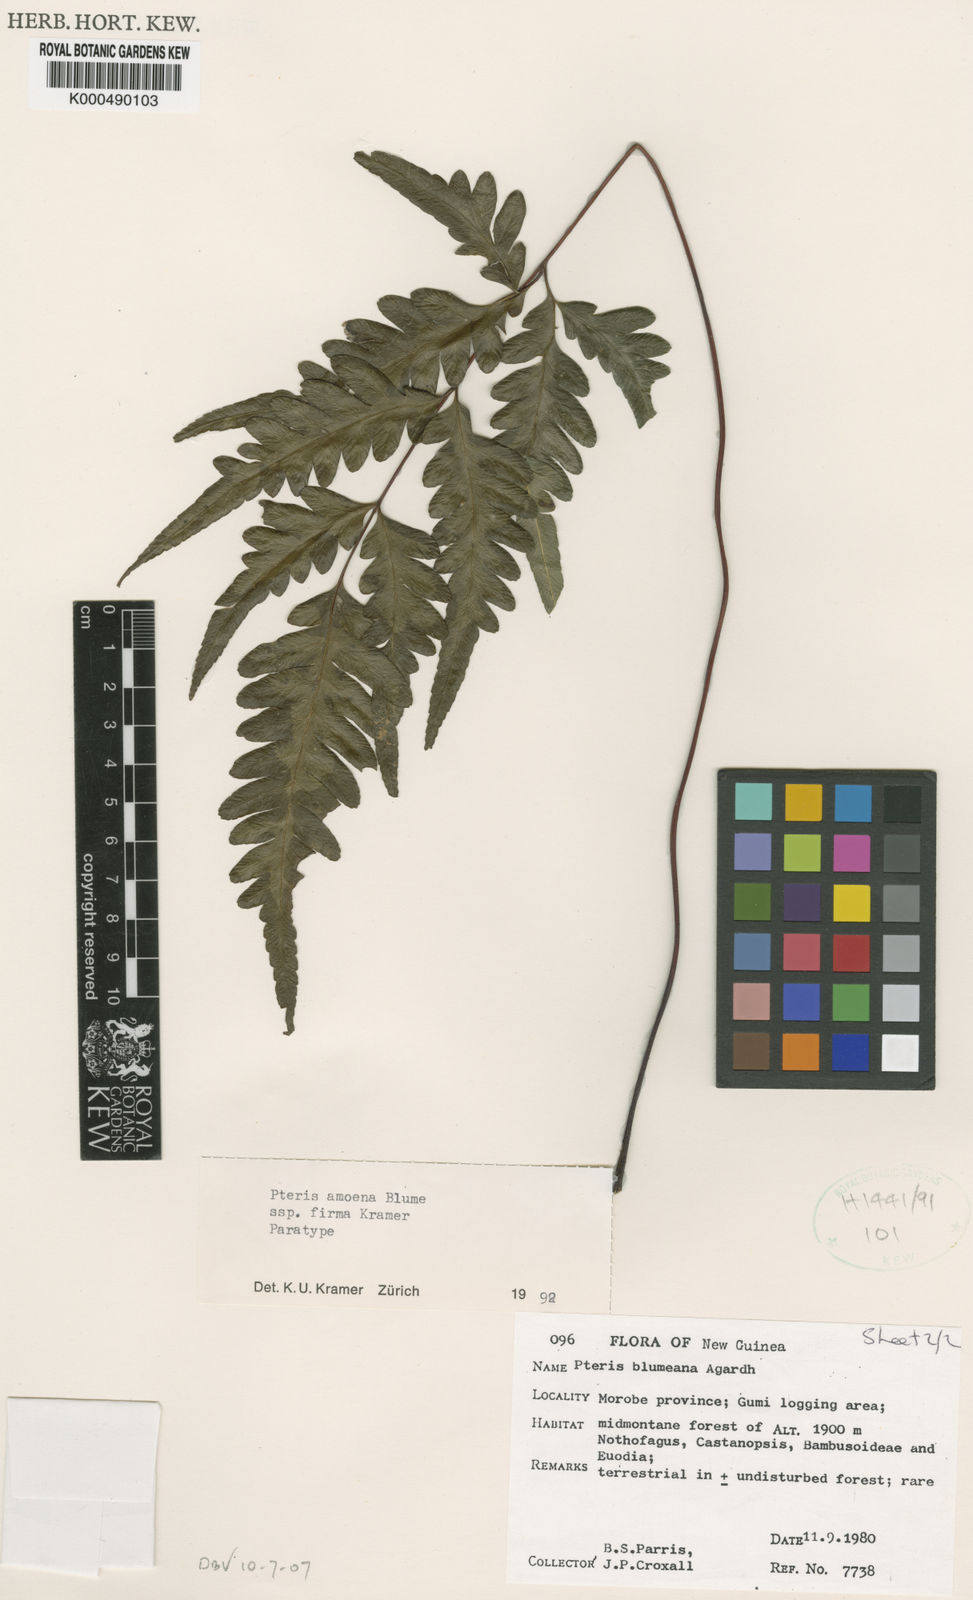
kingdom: Plantae
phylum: Tracheophyta
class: Polypodiopsida
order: Polypodiales
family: Pteridaceae
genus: Pteris
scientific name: Pteris amoena
